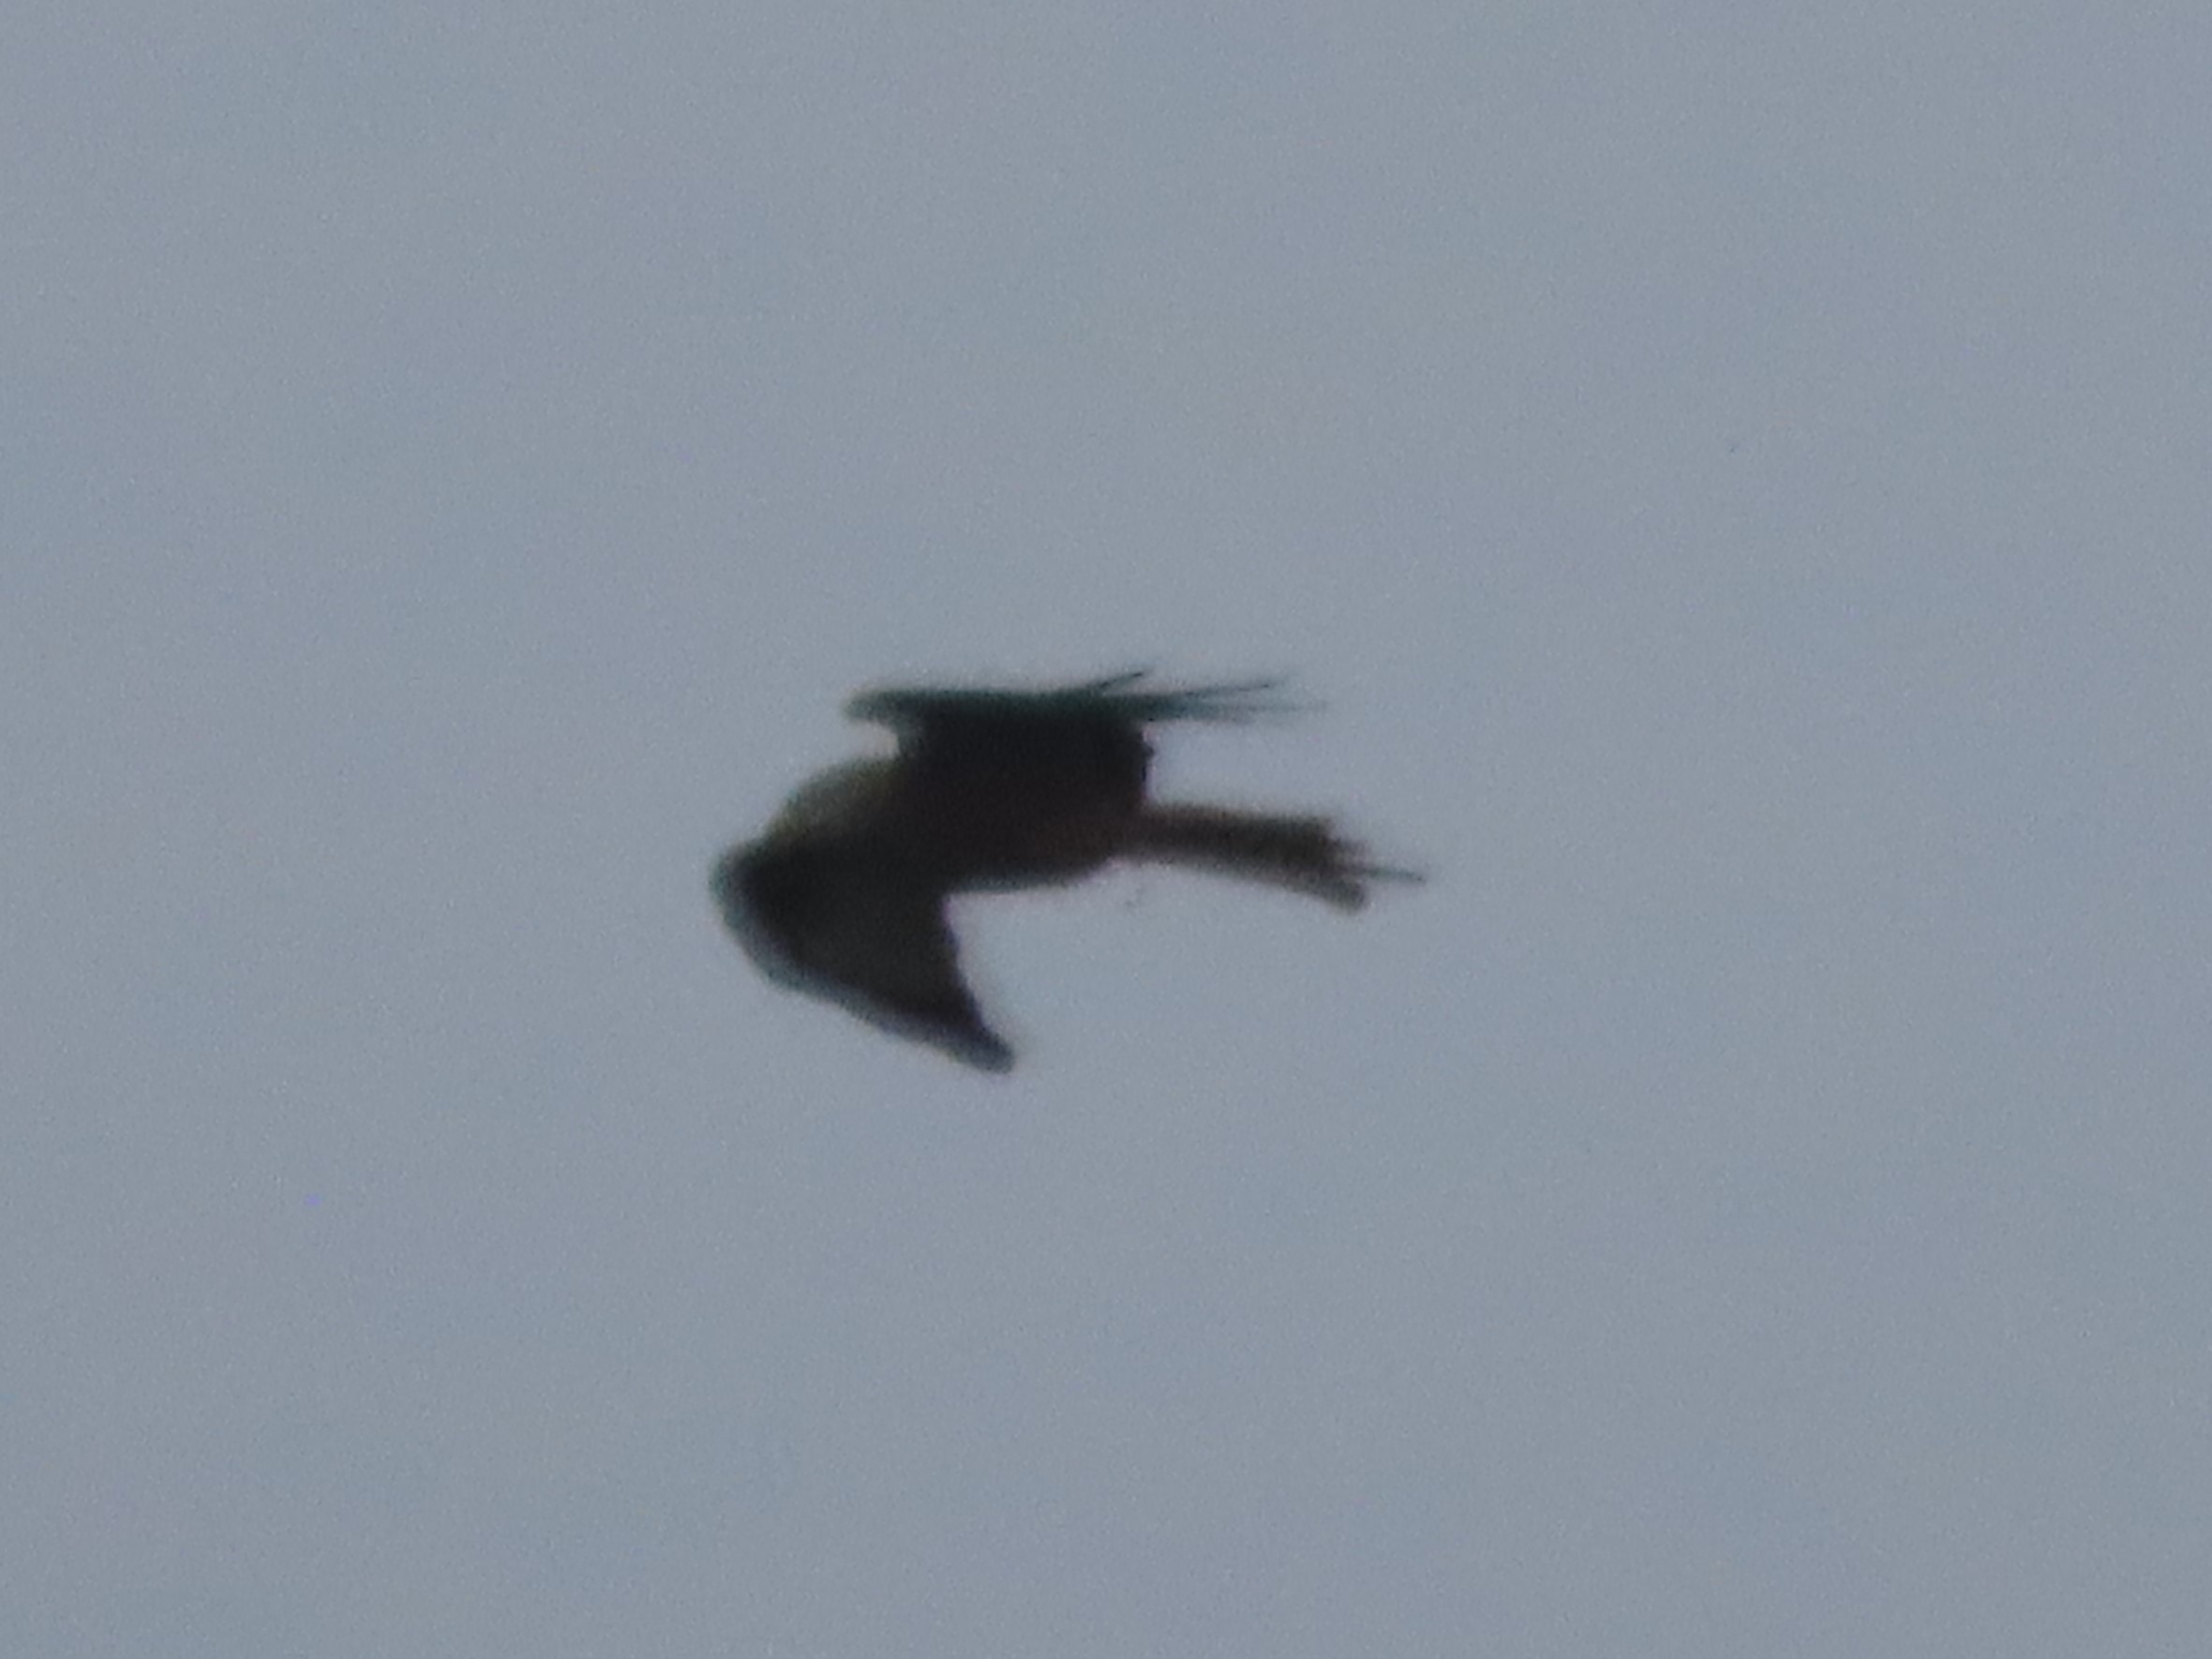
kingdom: Animalia
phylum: Chordata
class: Aves
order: Accipitriformes
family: Accipitridae
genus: Milvus
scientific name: Milvus milvus
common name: Rød glente
